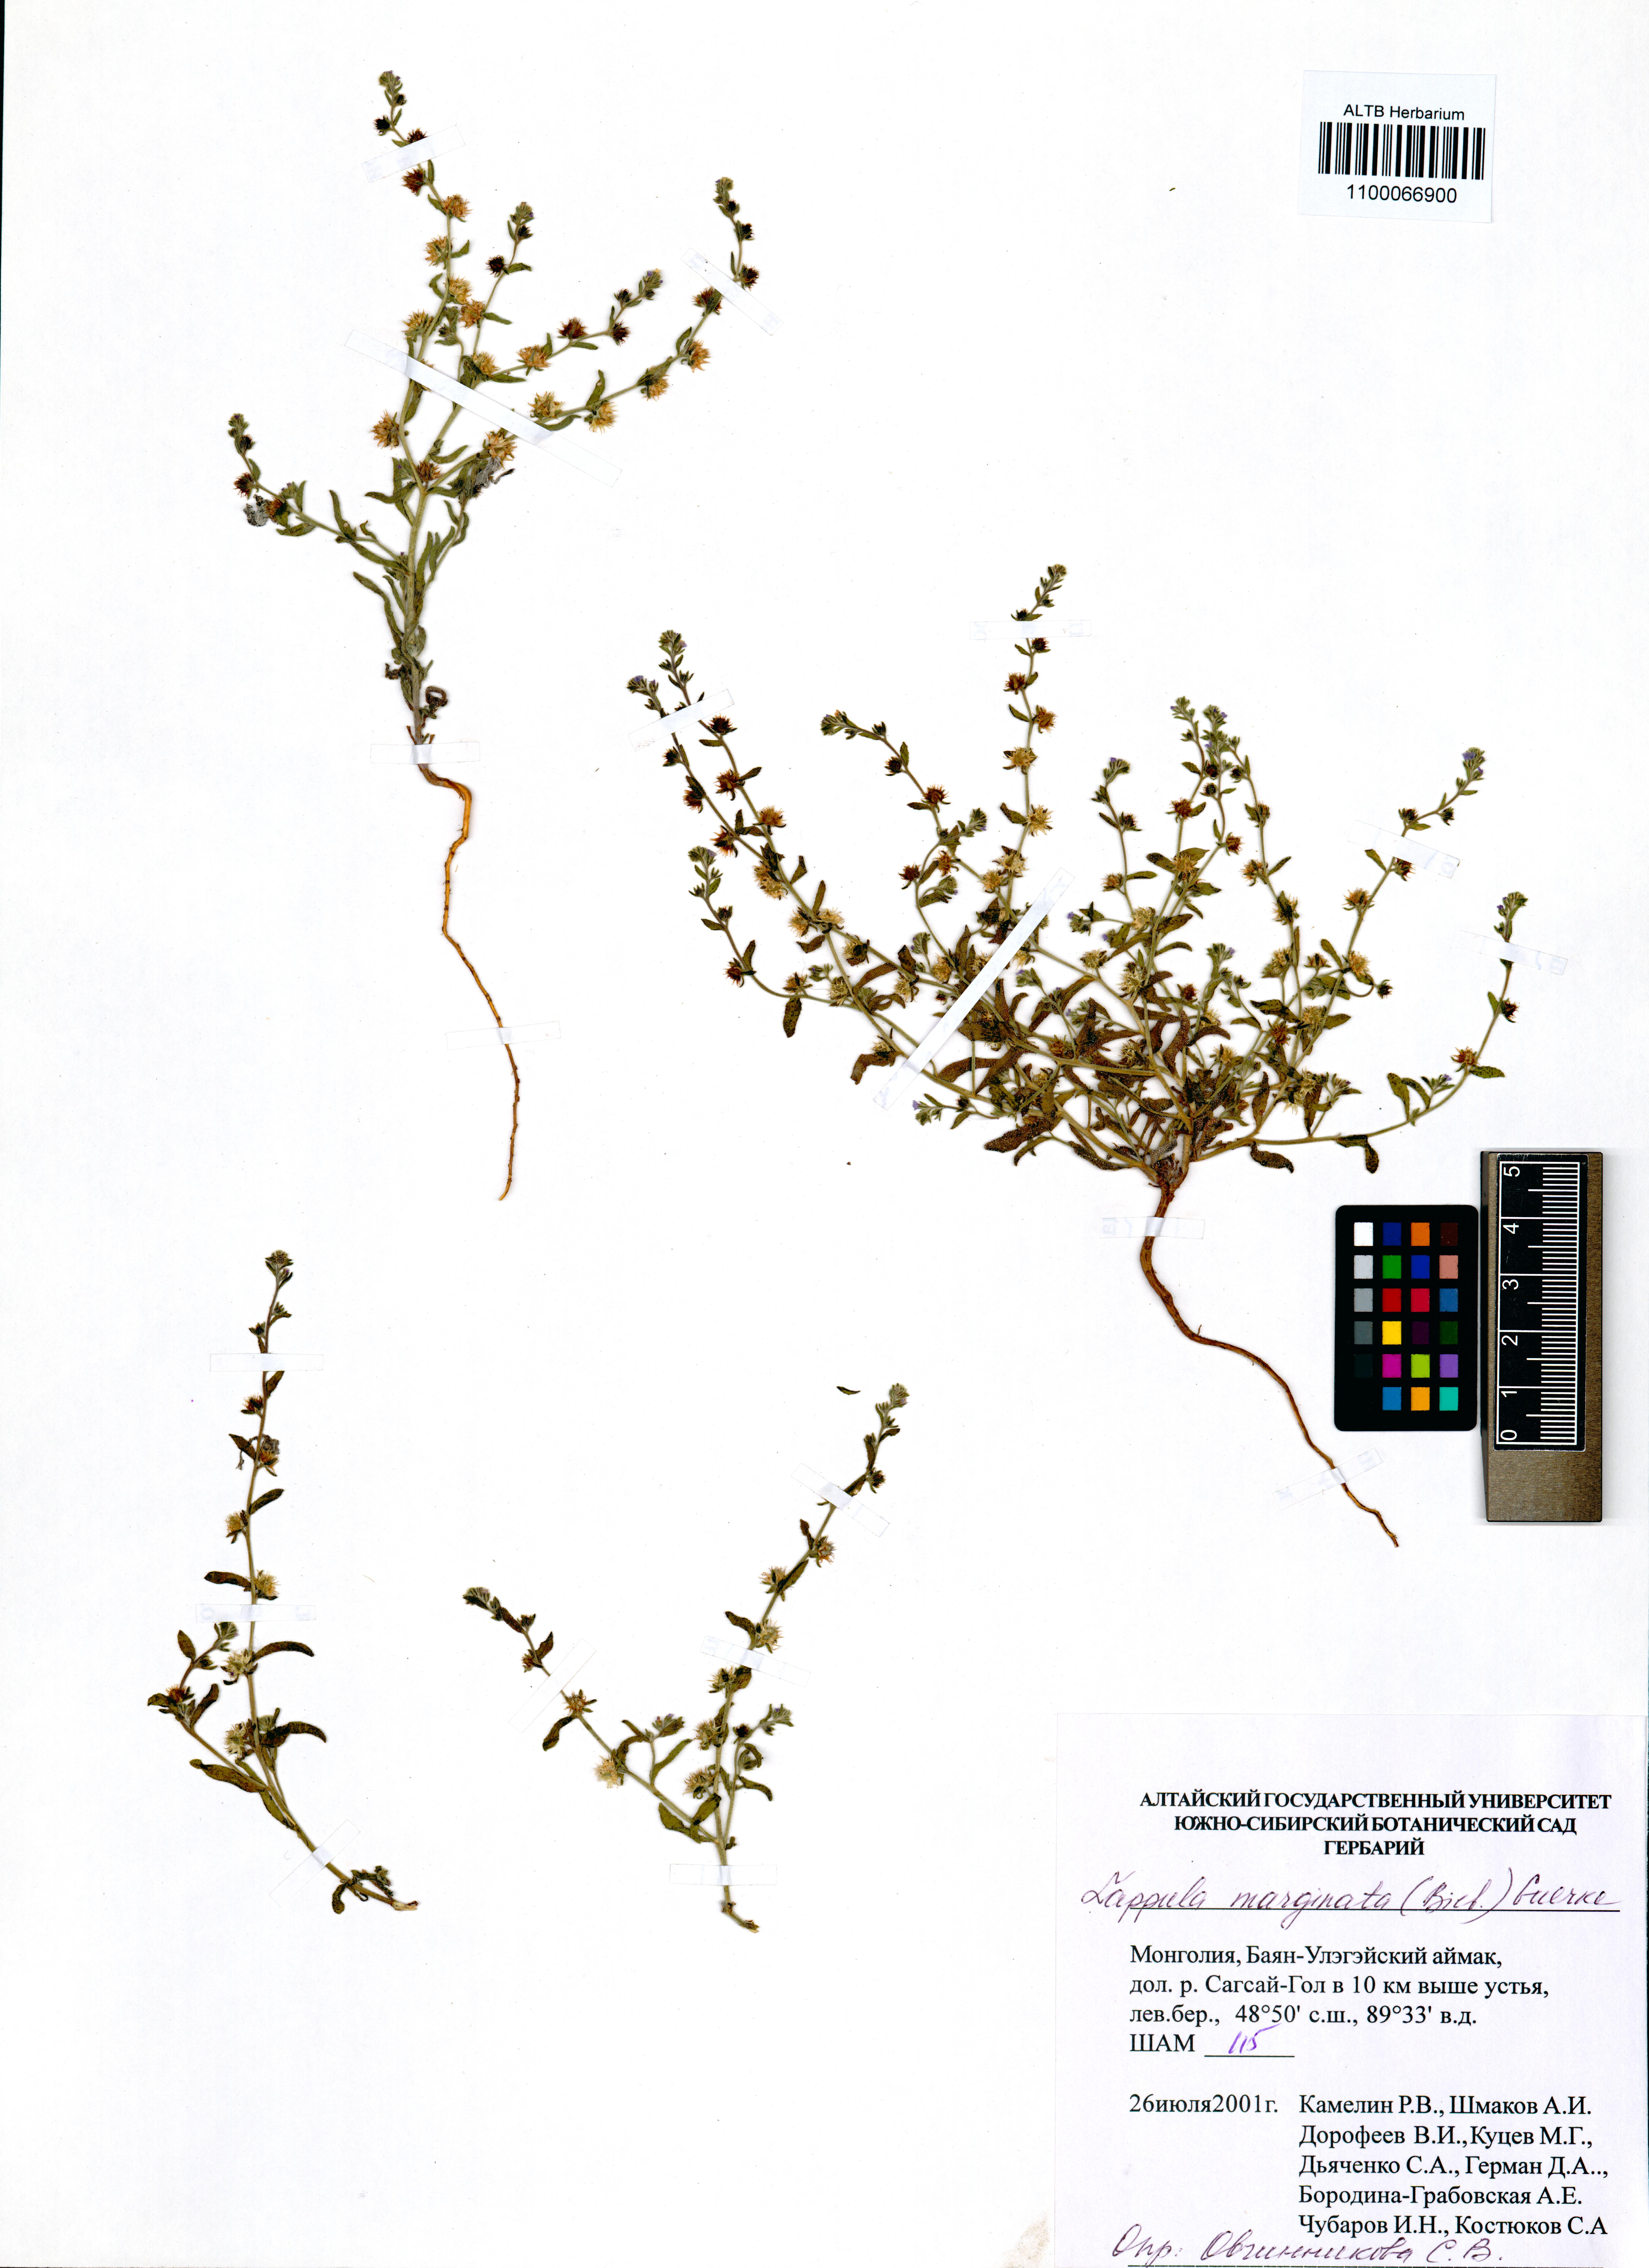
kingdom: Plantae
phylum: Tracheophyta
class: Magnoliopsida
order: Boraginales
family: Boraginaceae
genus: Lappula
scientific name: Lappula marginata
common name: Margined stickseed
